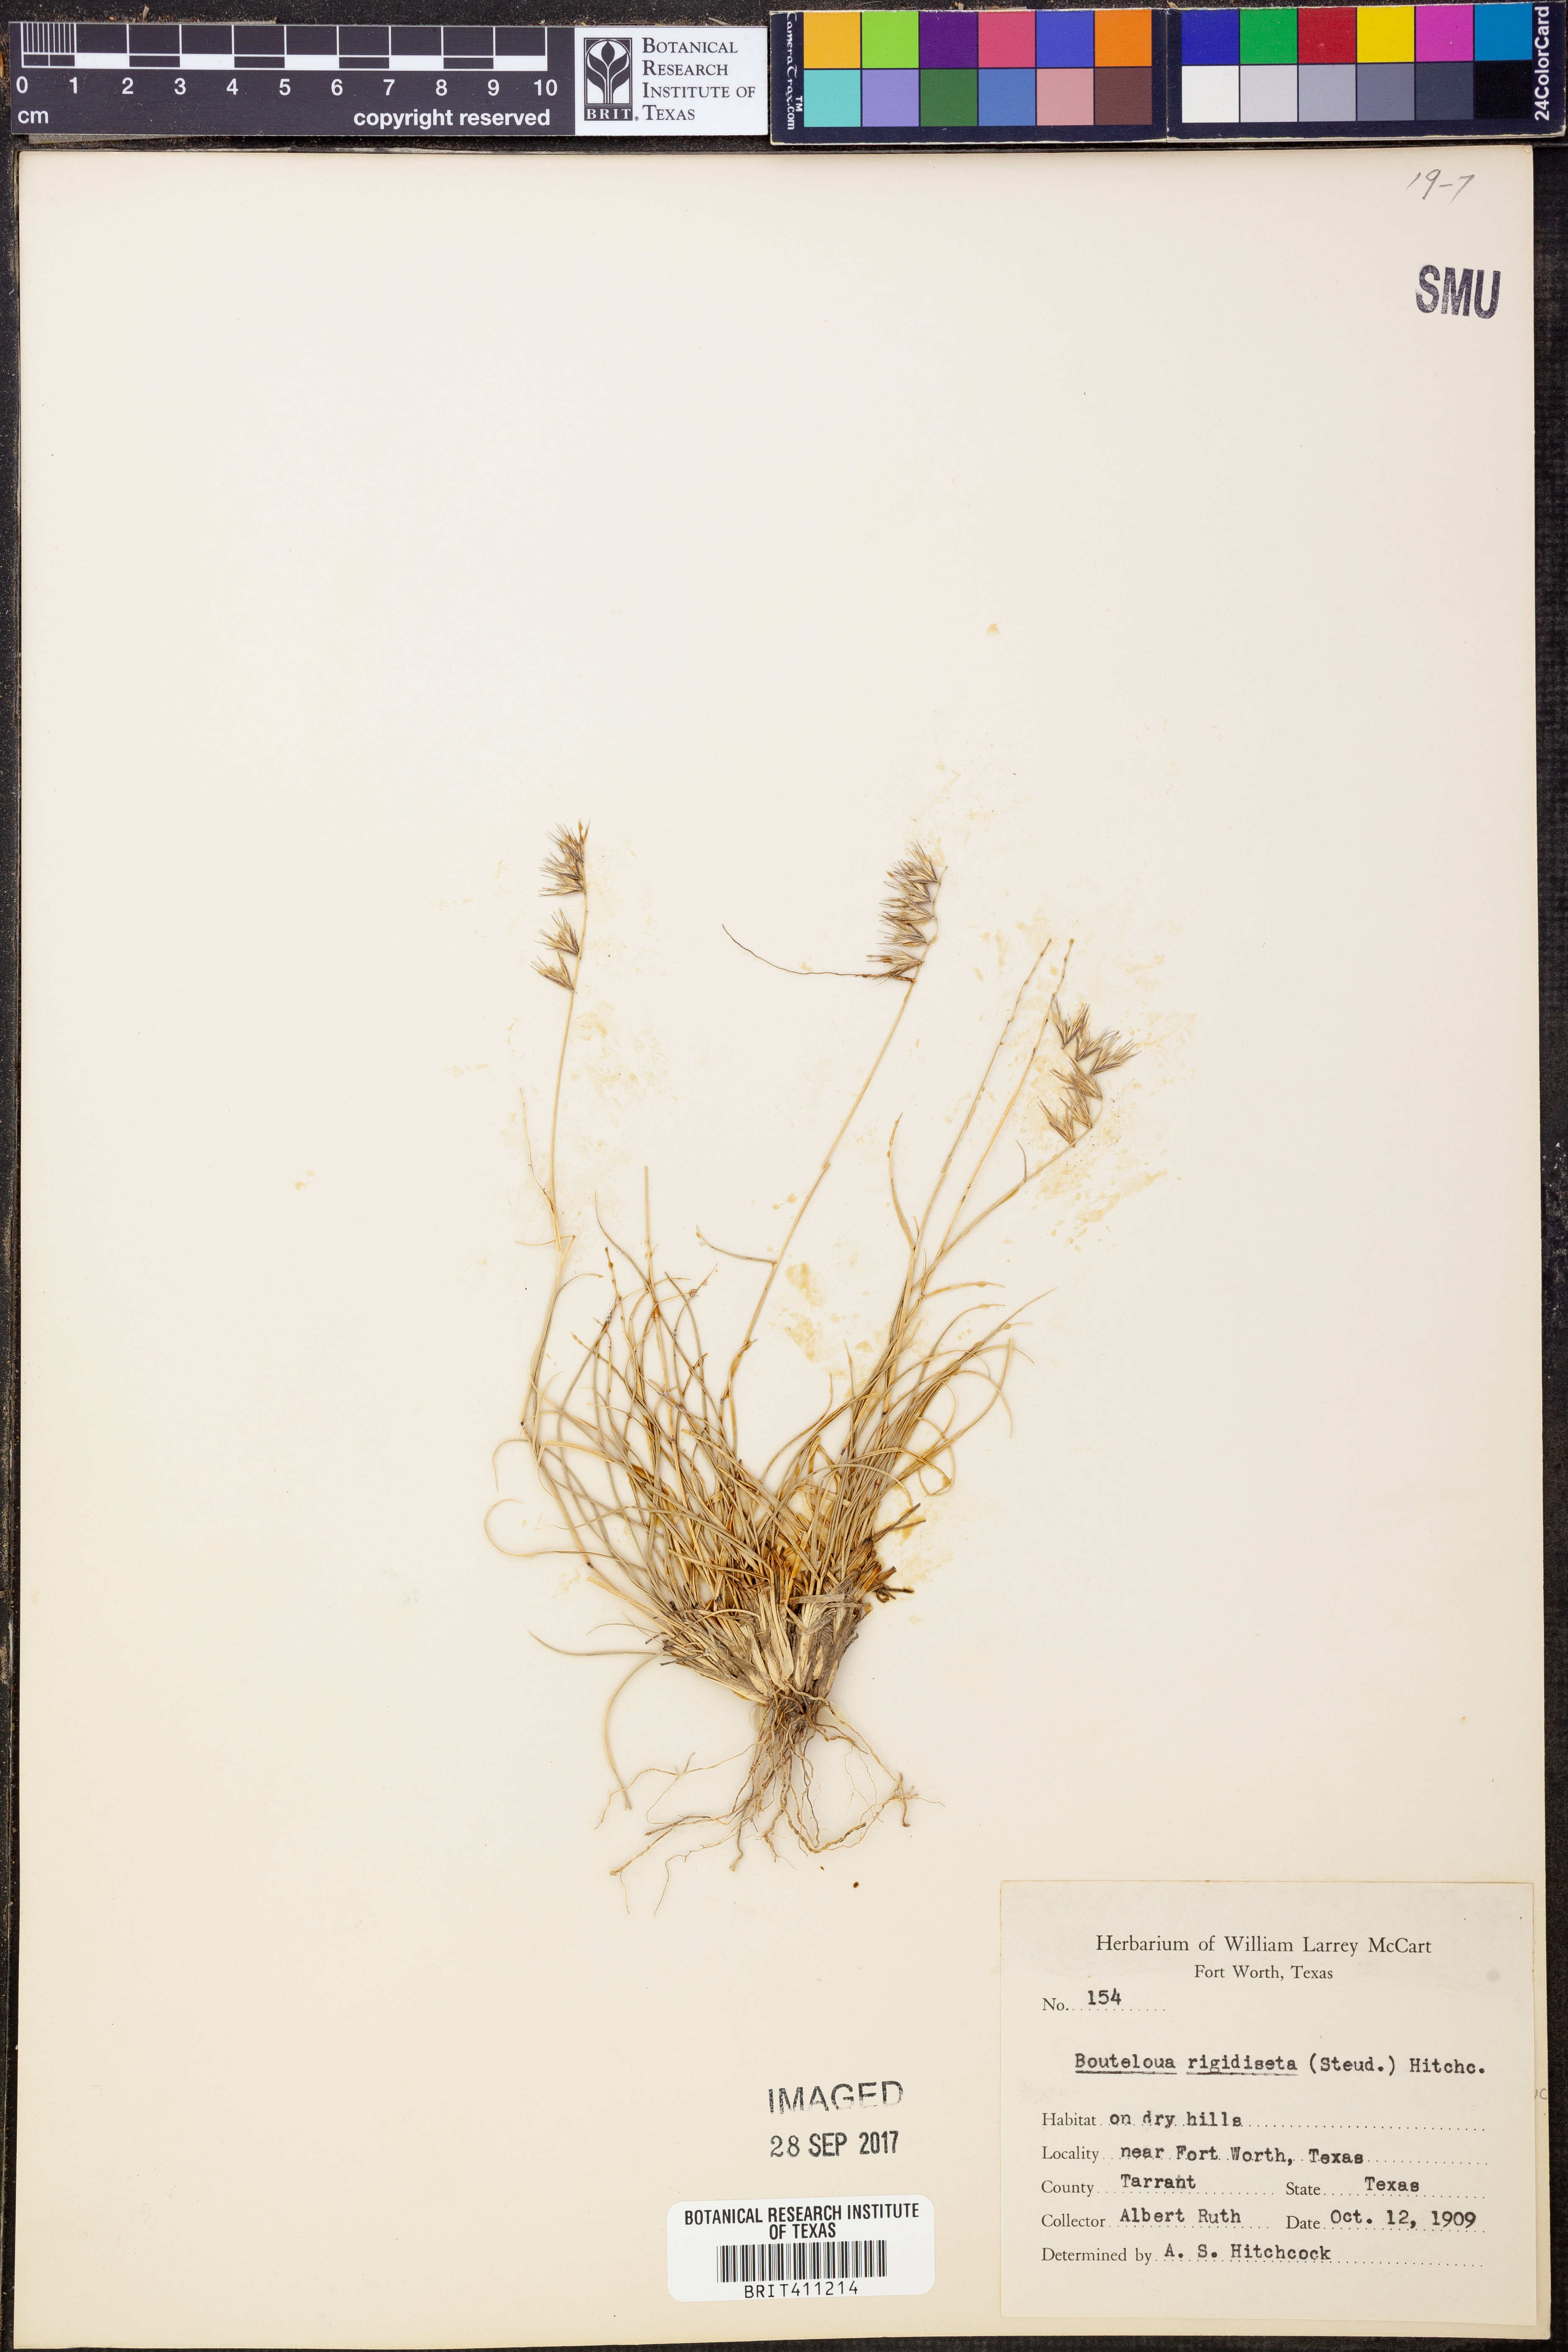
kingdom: Plantae
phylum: Tracheophyta
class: Liliopsida
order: Poales
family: Poaceae
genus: Bouteloua
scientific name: Bouteloua rigidiseta
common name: Texas grama
